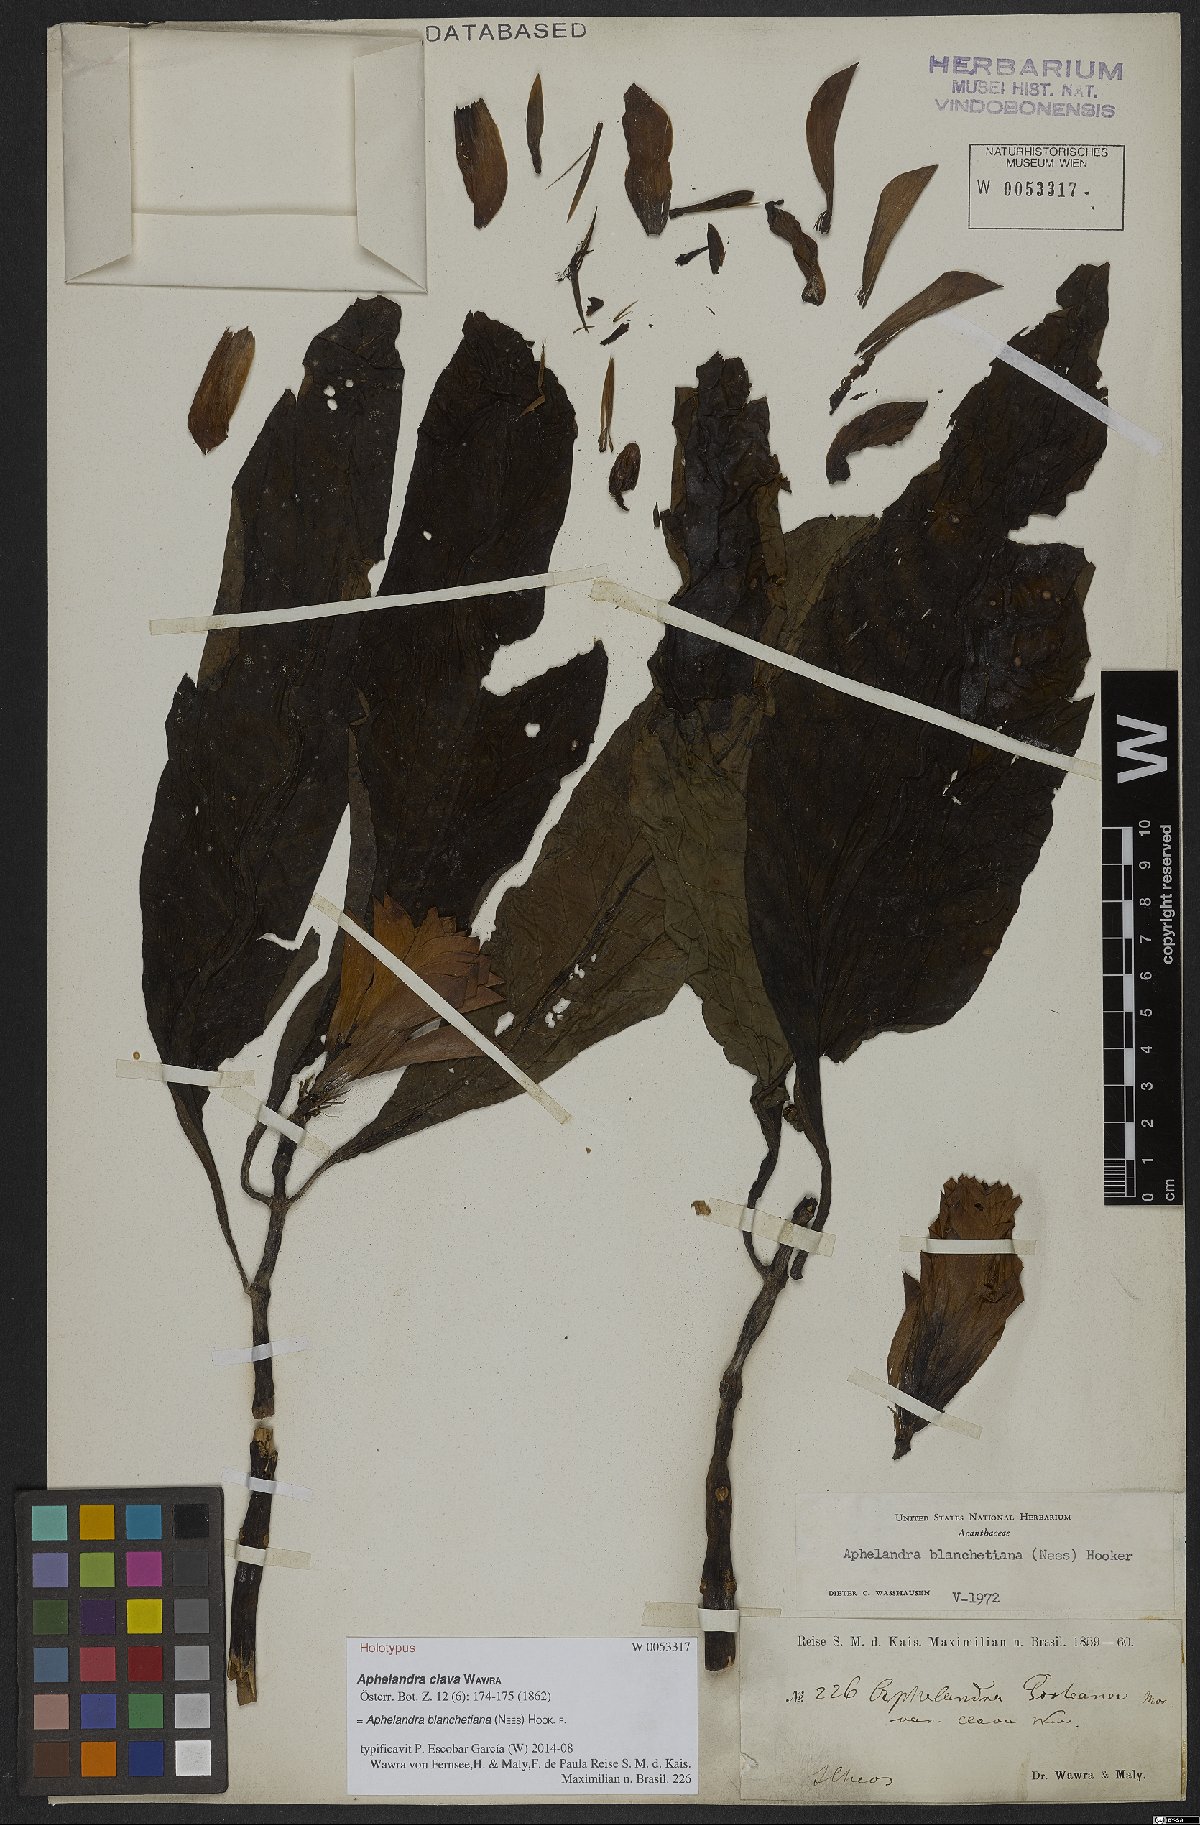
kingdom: Plantae
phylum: Tracheophyta
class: Magnoliopsida
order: Lamiales
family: Acanthaceae
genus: Aphelandra
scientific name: Aphelandra blanchetiana
